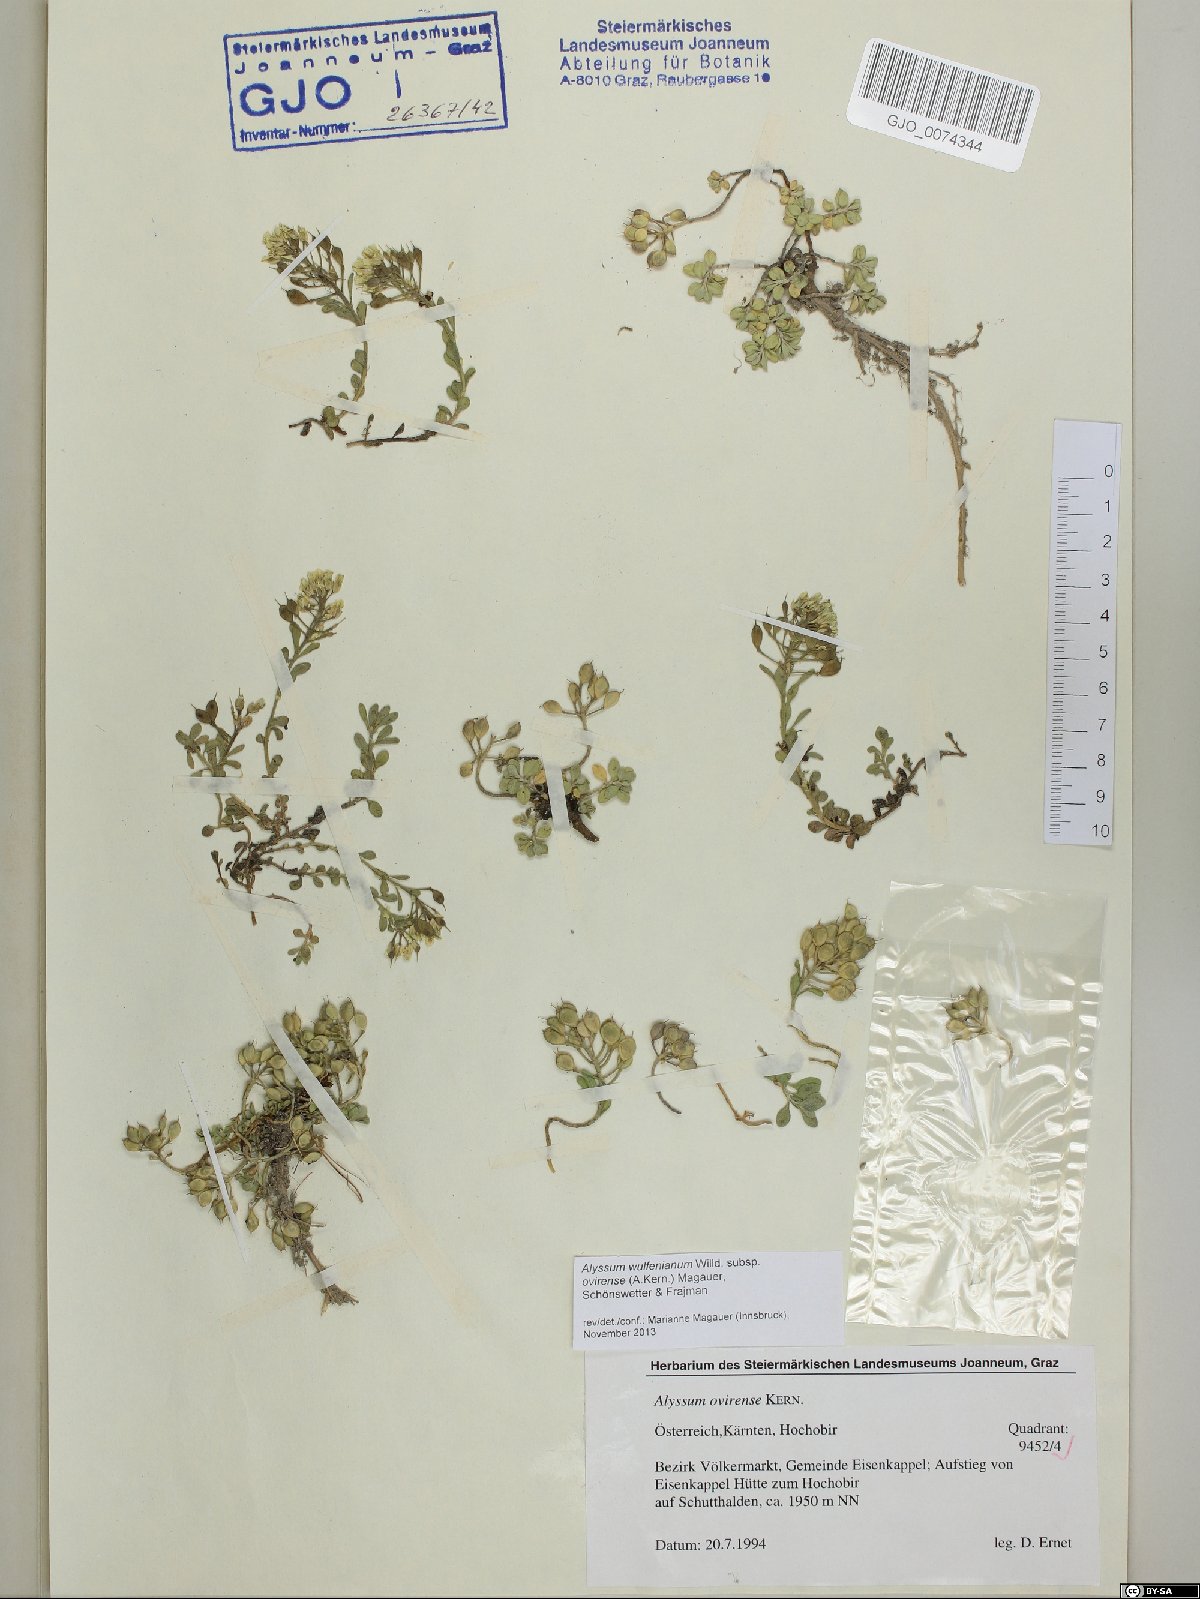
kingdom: Plantae
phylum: Tracheophyta
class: Magnoliopsida
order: Brassicales
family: Brassicaceae
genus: Alyssum
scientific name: Alyssum wulfenianum
